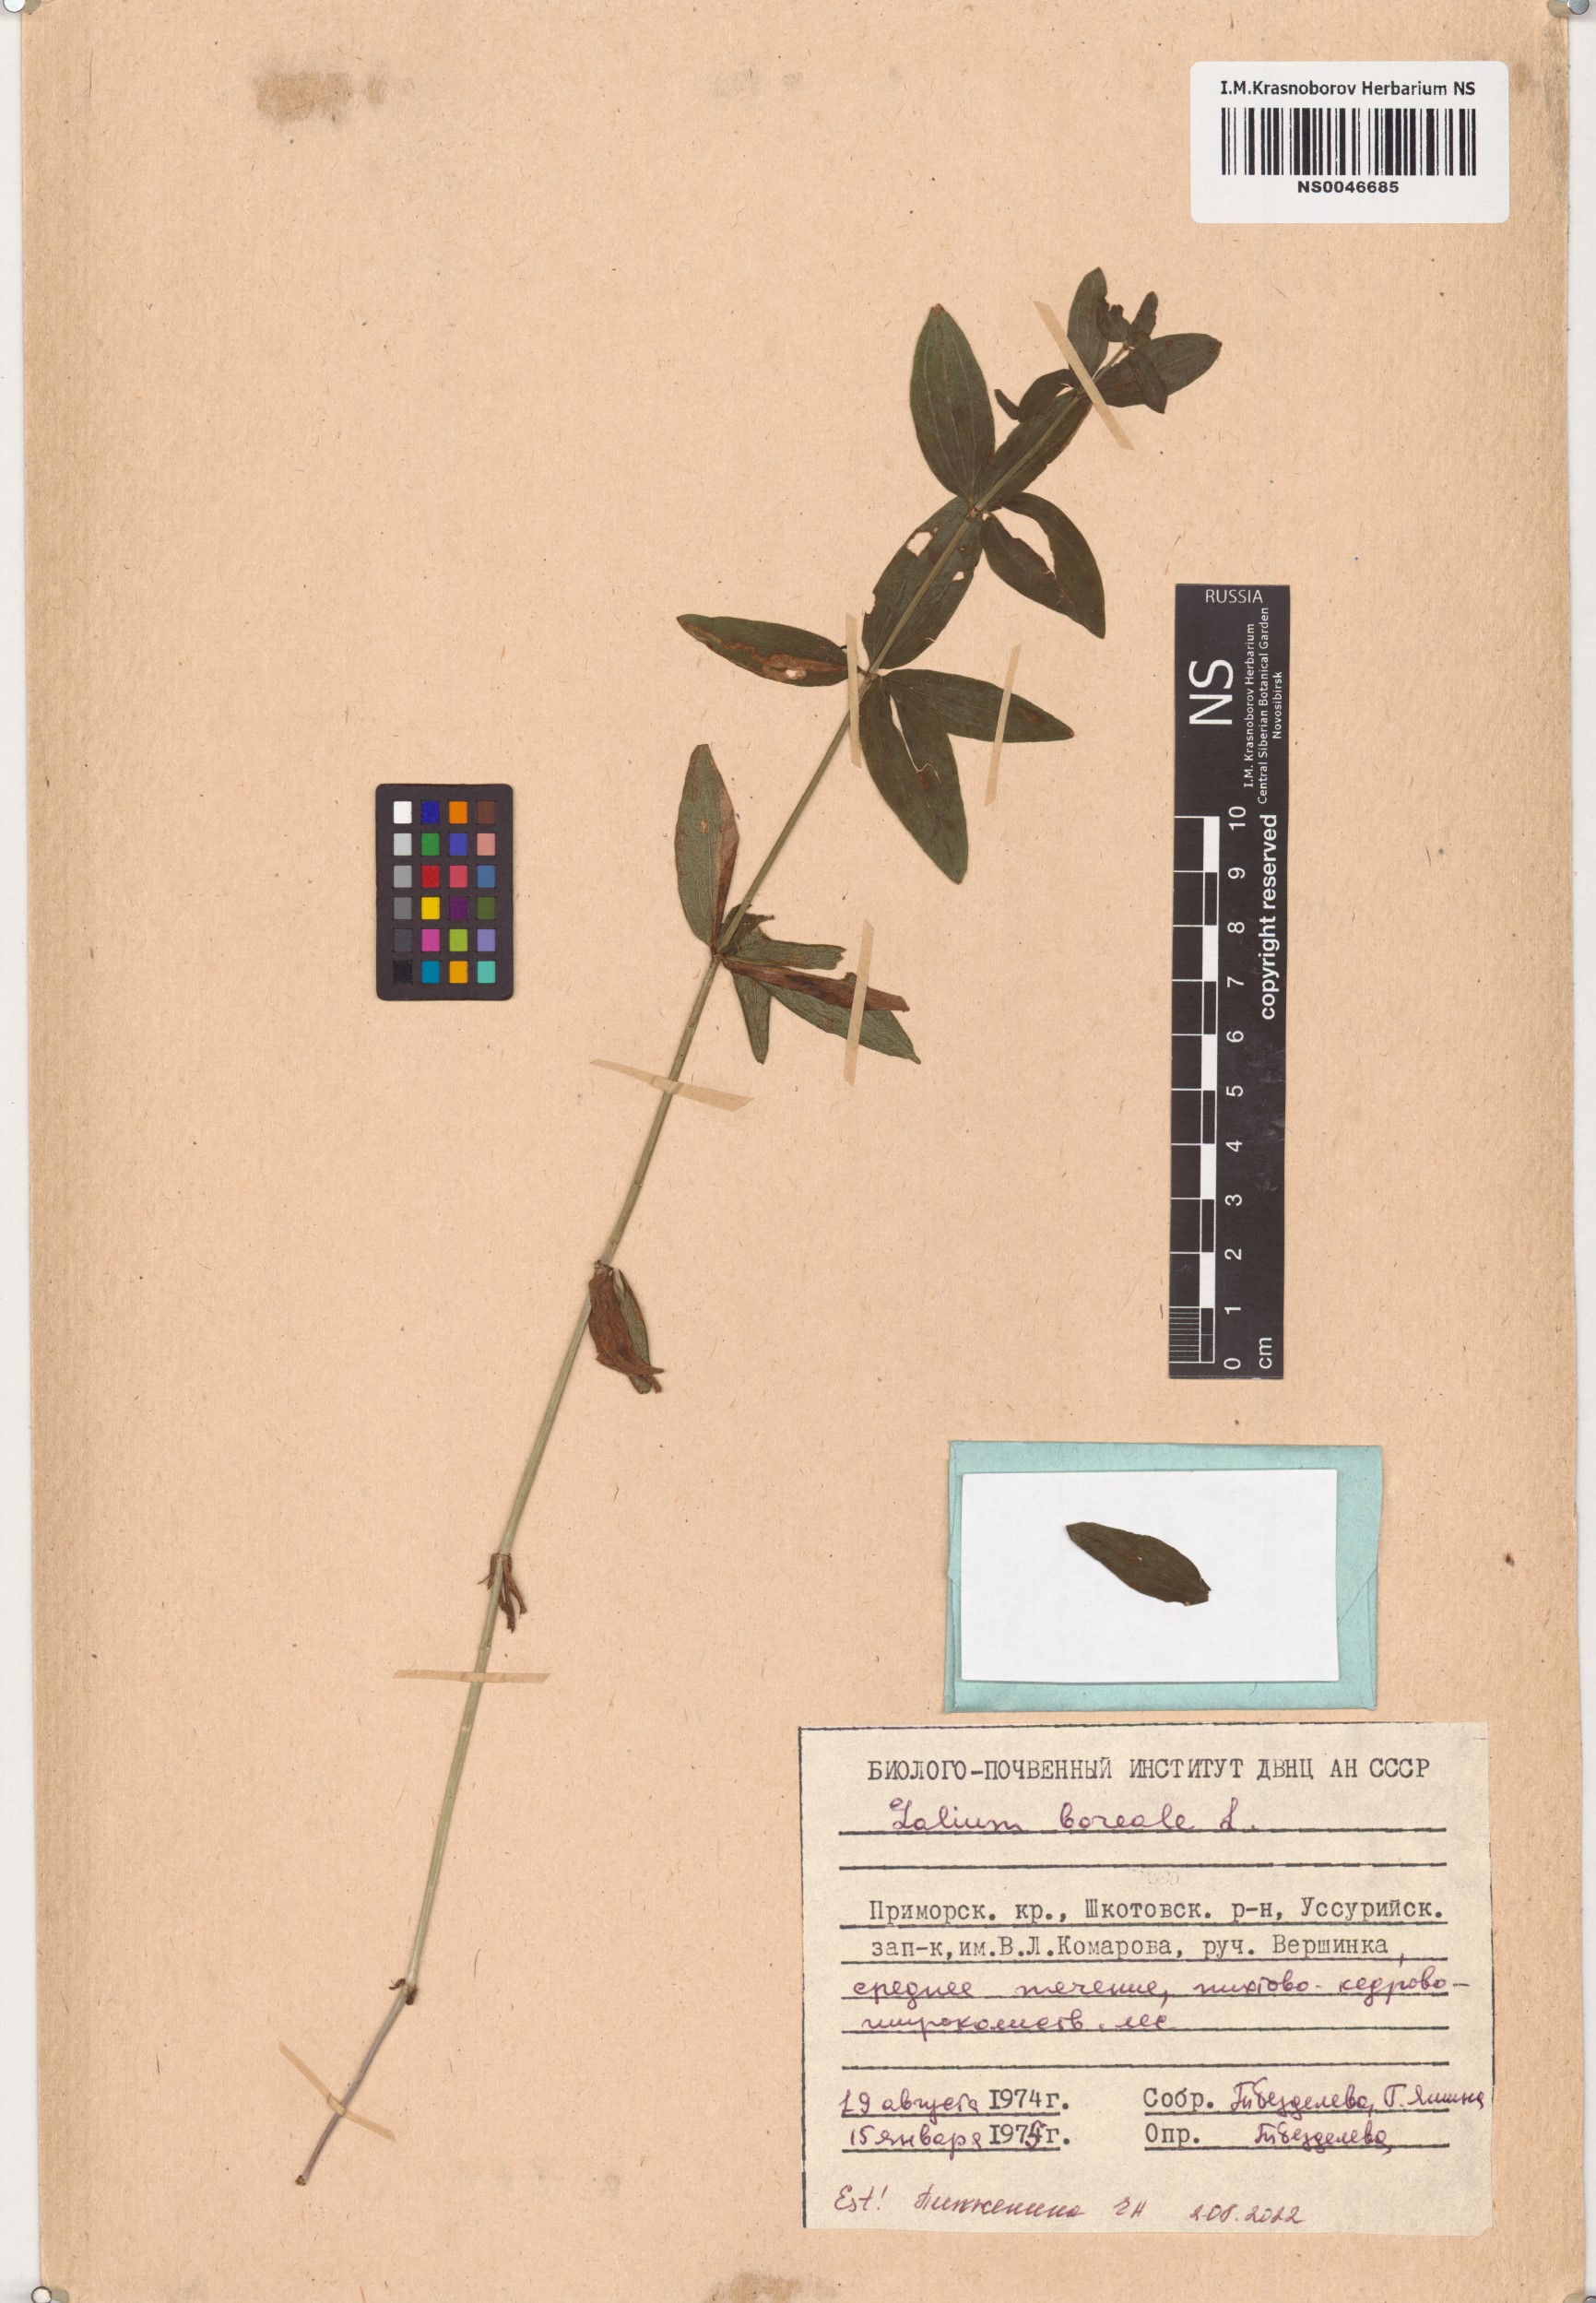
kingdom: Plantae
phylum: Tracheophyta
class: Magnoliopsida
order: Gentianales
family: Rubiaceae
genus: Galium
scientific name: Galium boreale
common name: Northern bedstraw
